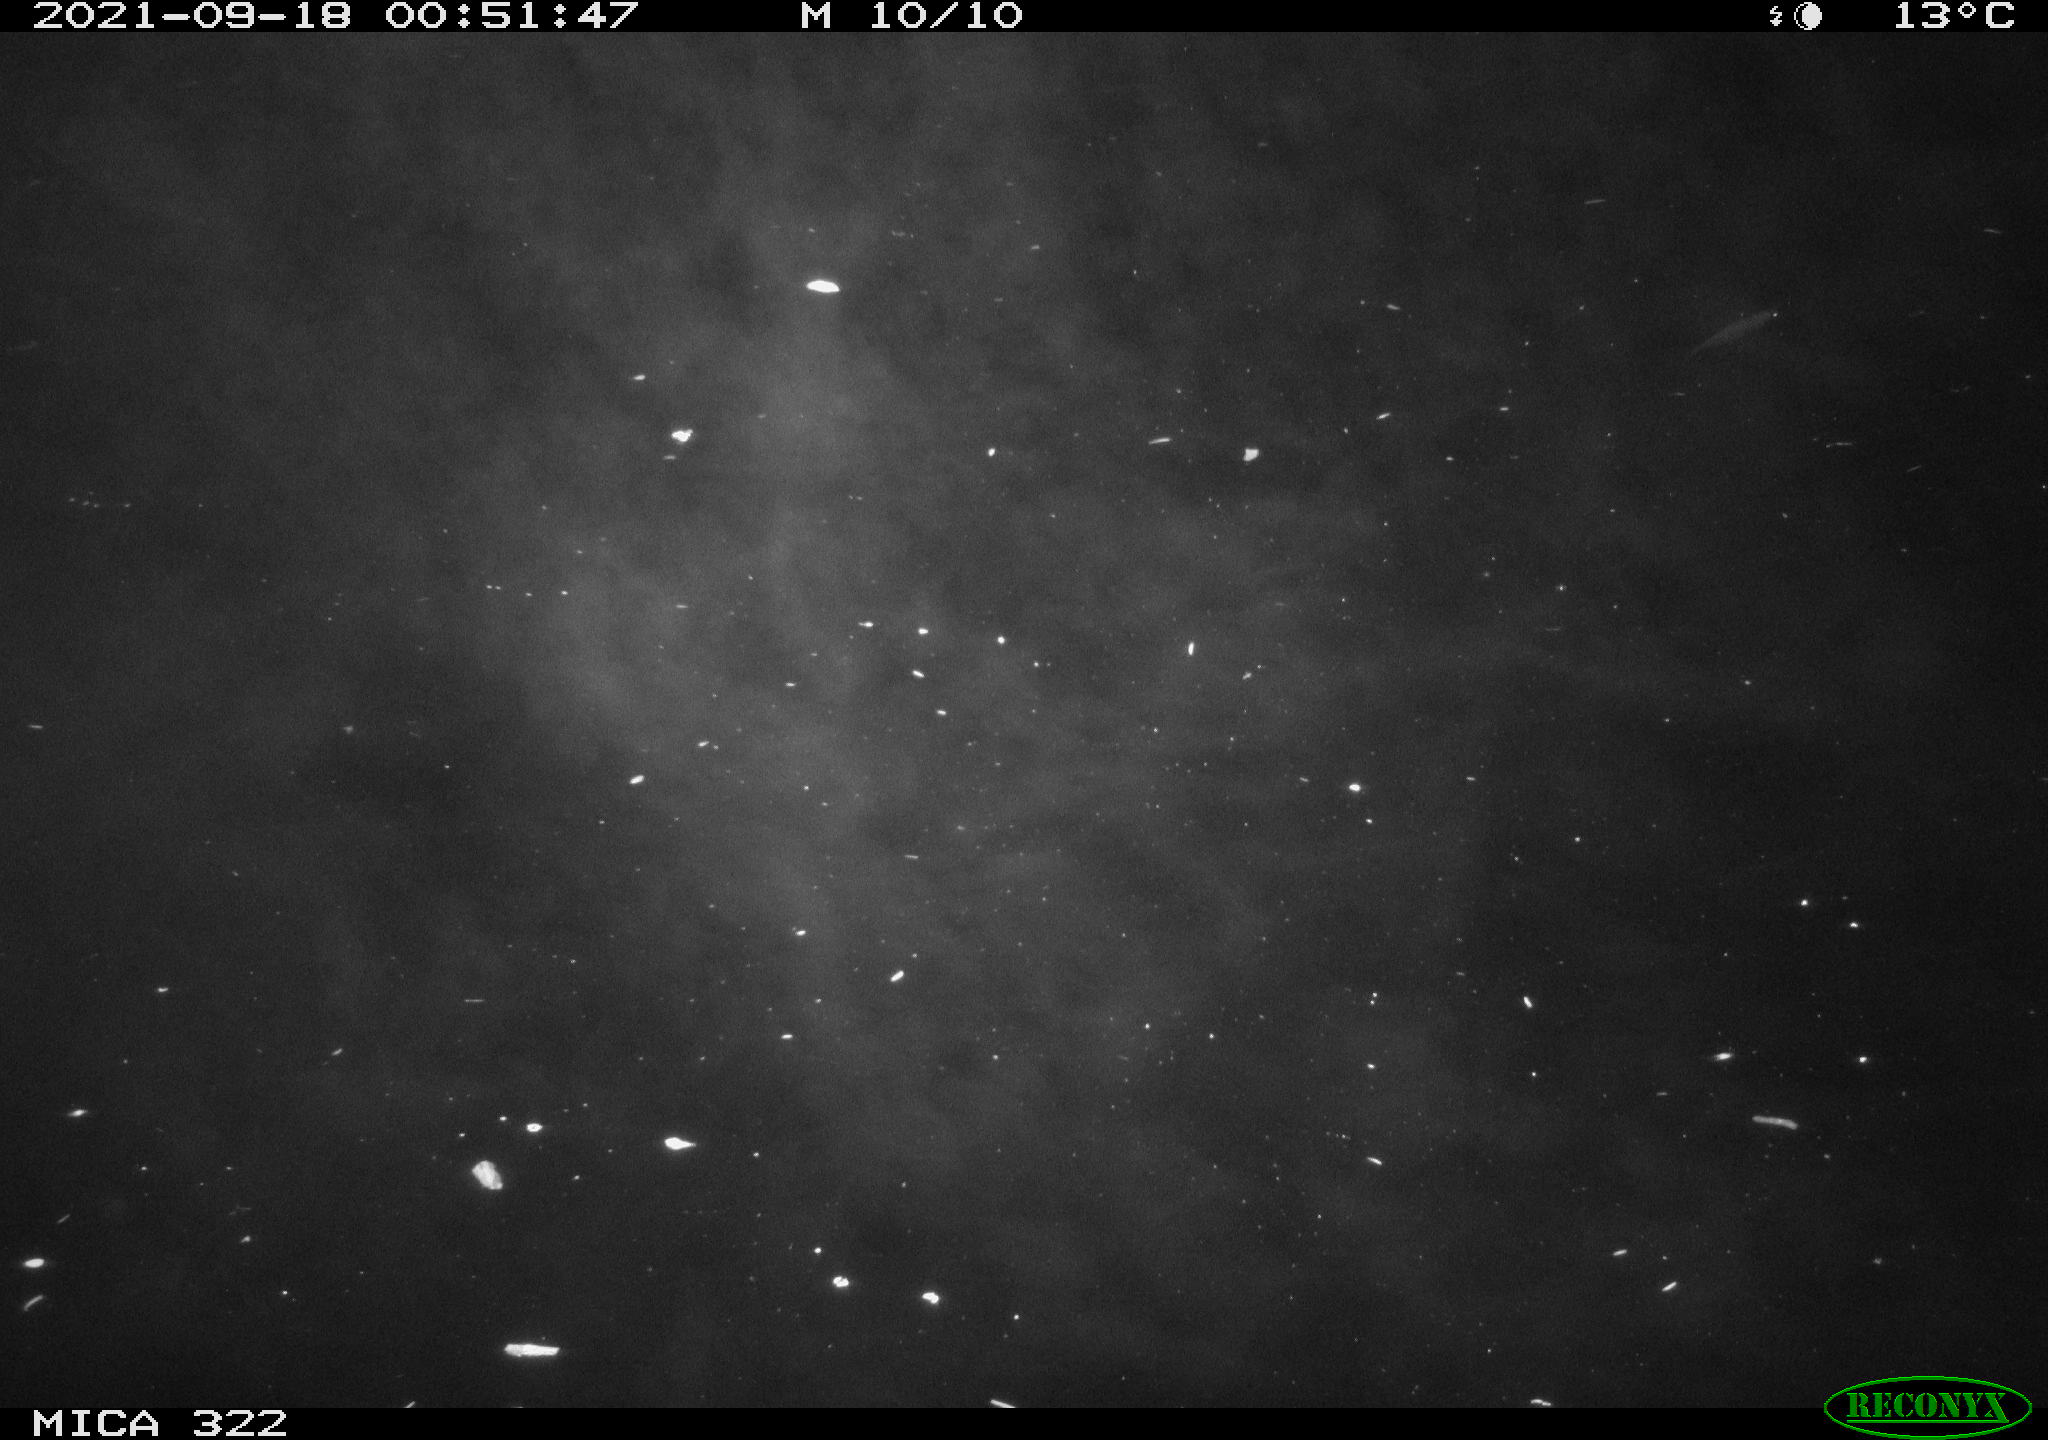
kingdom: Animalia
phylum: Chordata
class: Mammalia
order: Rodentia
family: Cricetidae
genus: Ondatra
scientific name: Ondatra zibethicus
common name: Muskrat
